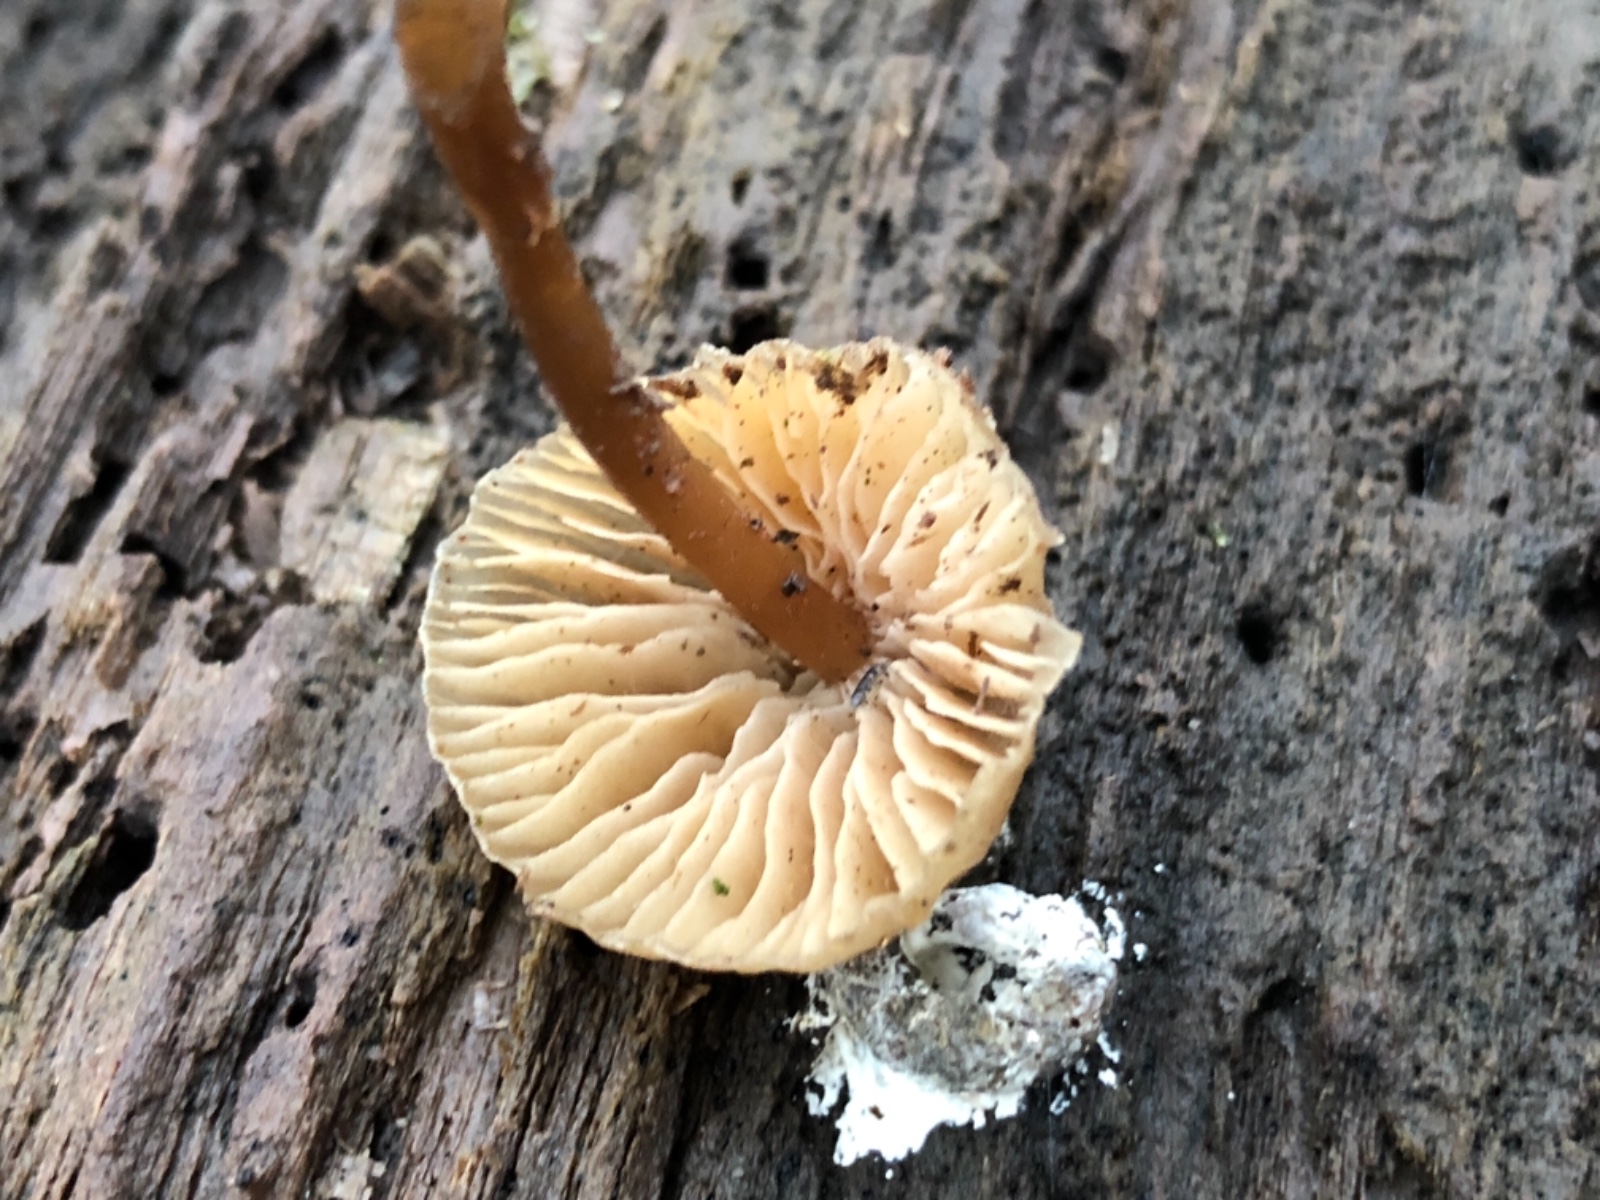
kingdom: Fungi
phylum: Basidiomycota
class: Agaricomycetes
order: Agaricales
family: Mycenaceae
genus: Mycena
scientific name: Mycena galericulata
